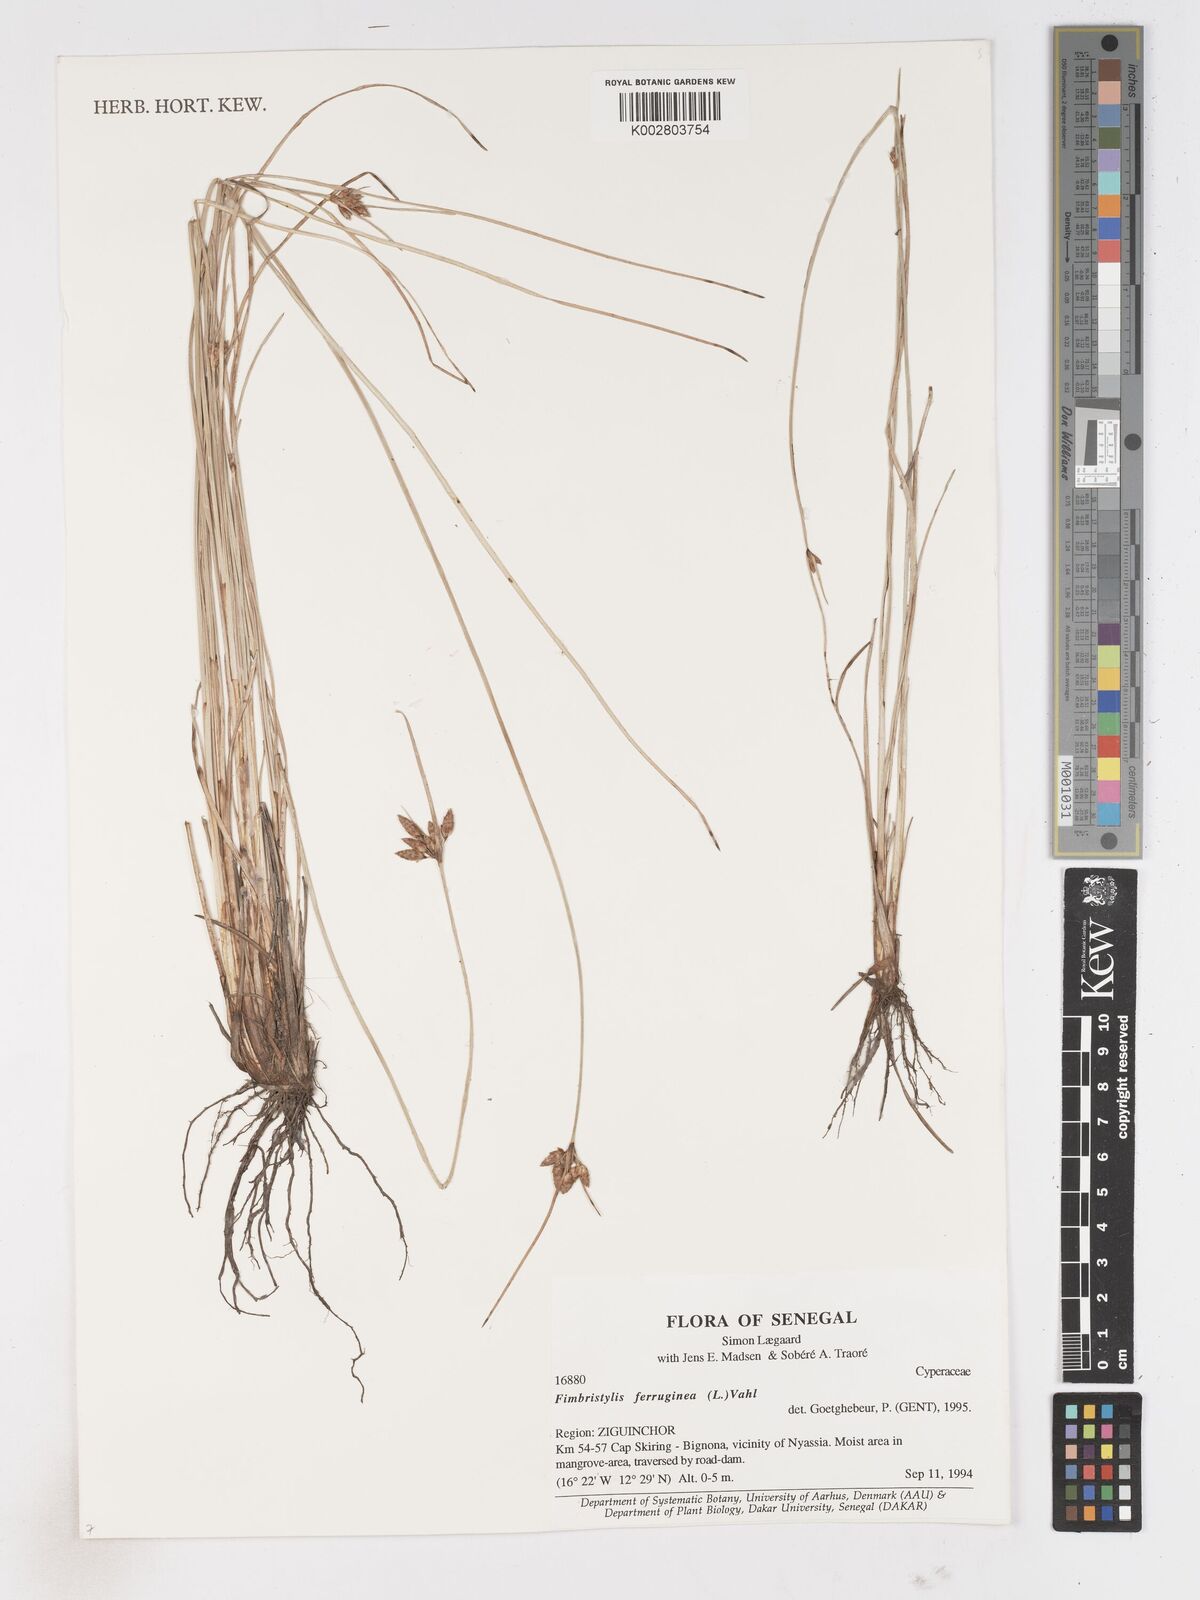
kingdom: Plantae
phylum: Tracheophyta
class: Liliopsida
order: Poales
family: Cyperaceae
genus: Fimbristylis
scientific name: Fimbristylis ferruginea
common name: West indian fimbry
